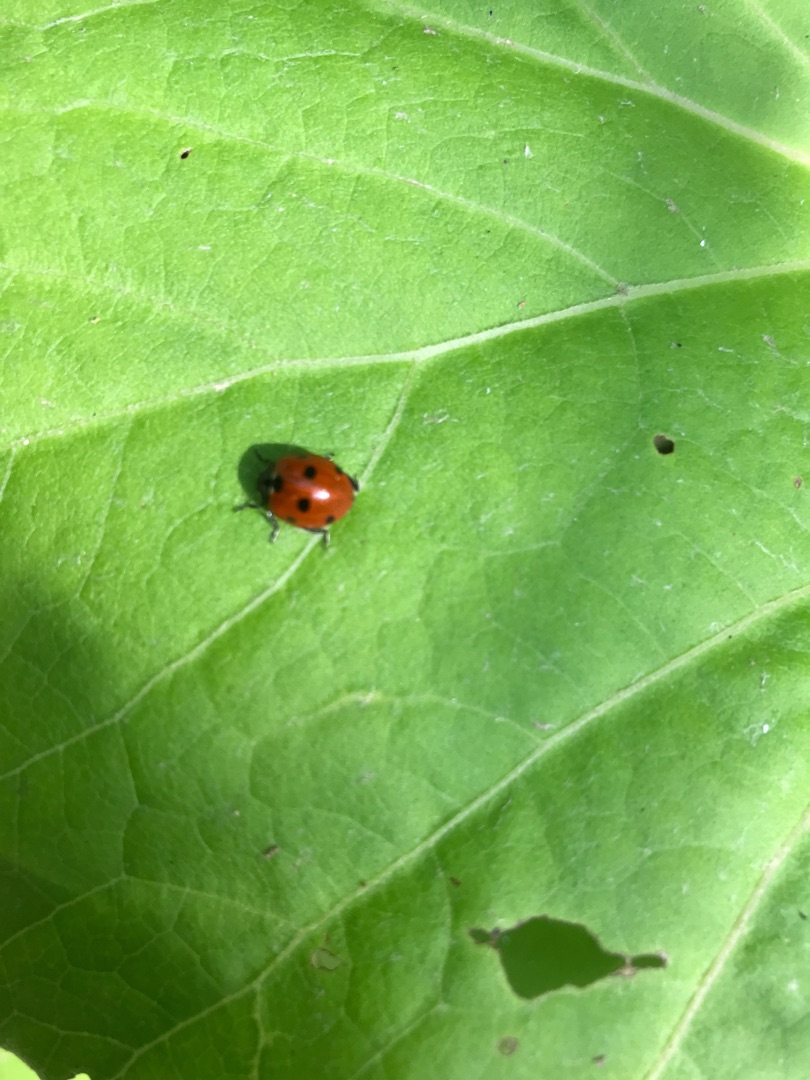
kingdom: Animalia
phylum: Arthropoda
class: Insecta
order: Coleoptera
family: Coccinellidae
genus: Coccinella
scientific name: Coccinella septempunctata
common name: Syvplettet mariehøne
